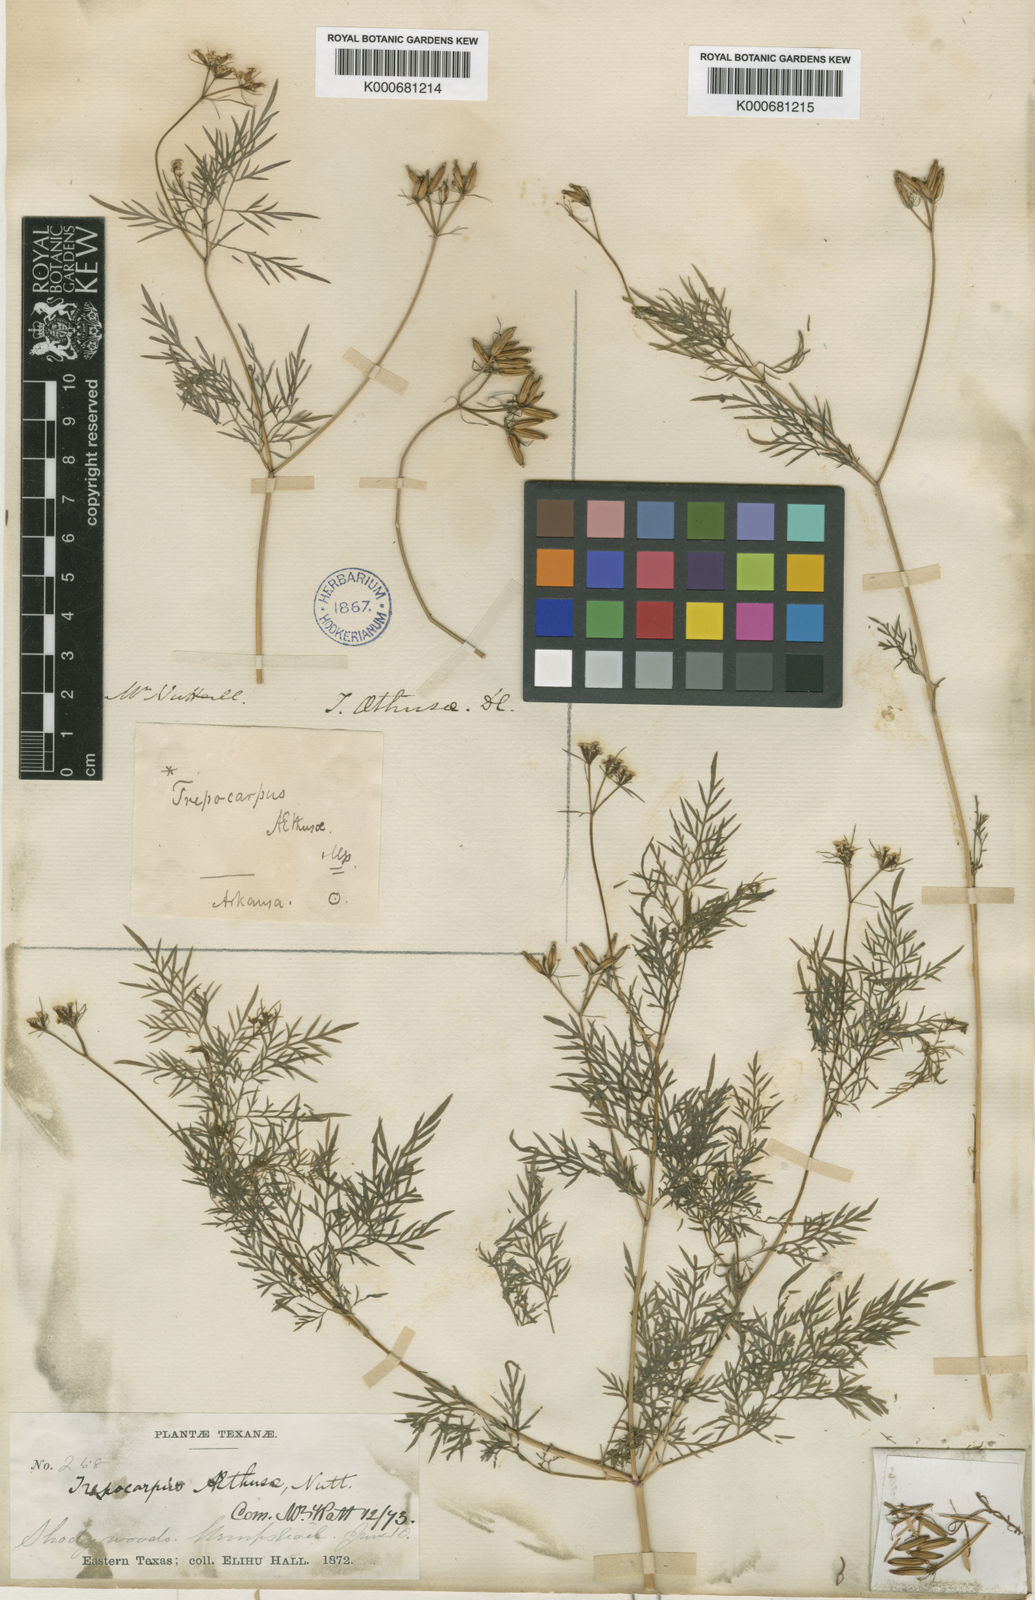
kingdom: Plantae
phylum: Tracheophyta
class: Magnoliopsida
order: Apiales
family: Apiaceae
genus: Trepocarpus
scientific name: Trepocarpus aethusae
